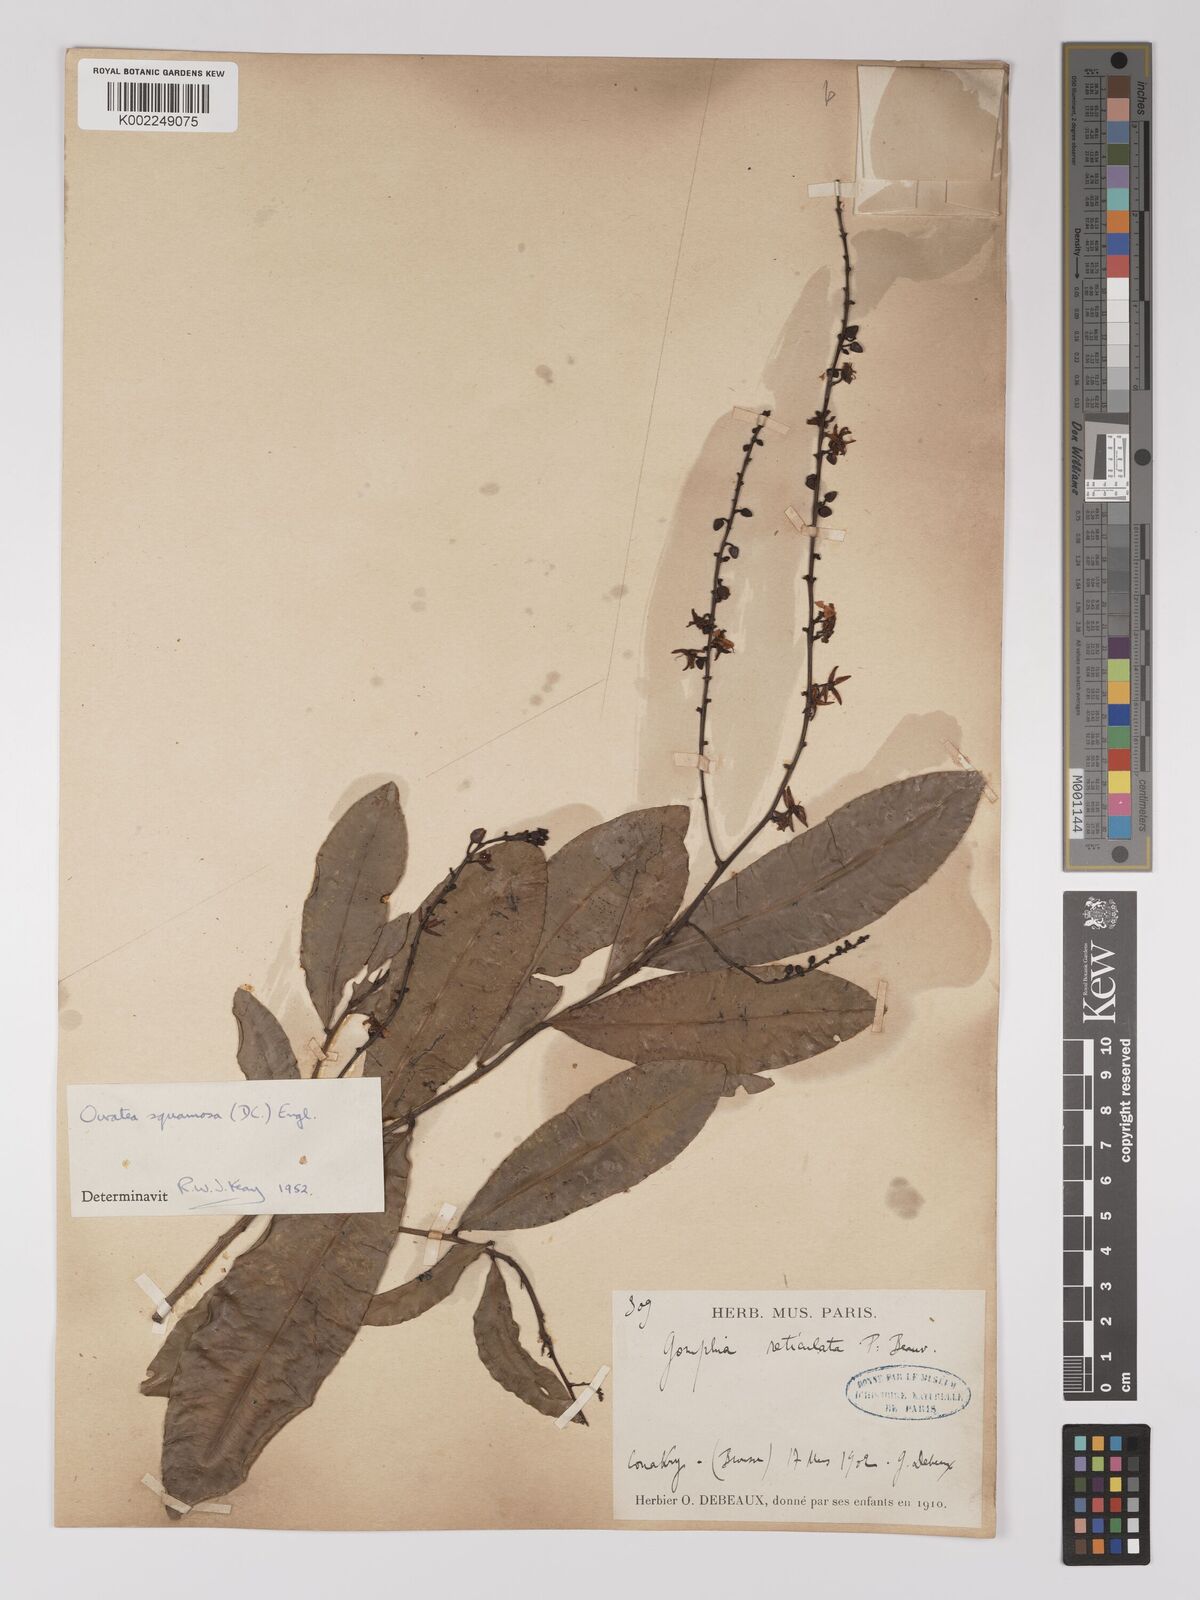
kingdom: Plantae
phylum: Tracheophyta
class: Magnoliopsida
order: Malpighiales
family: Ochnaceae
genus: Campylospermum
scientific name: Campylospermum squamosum
